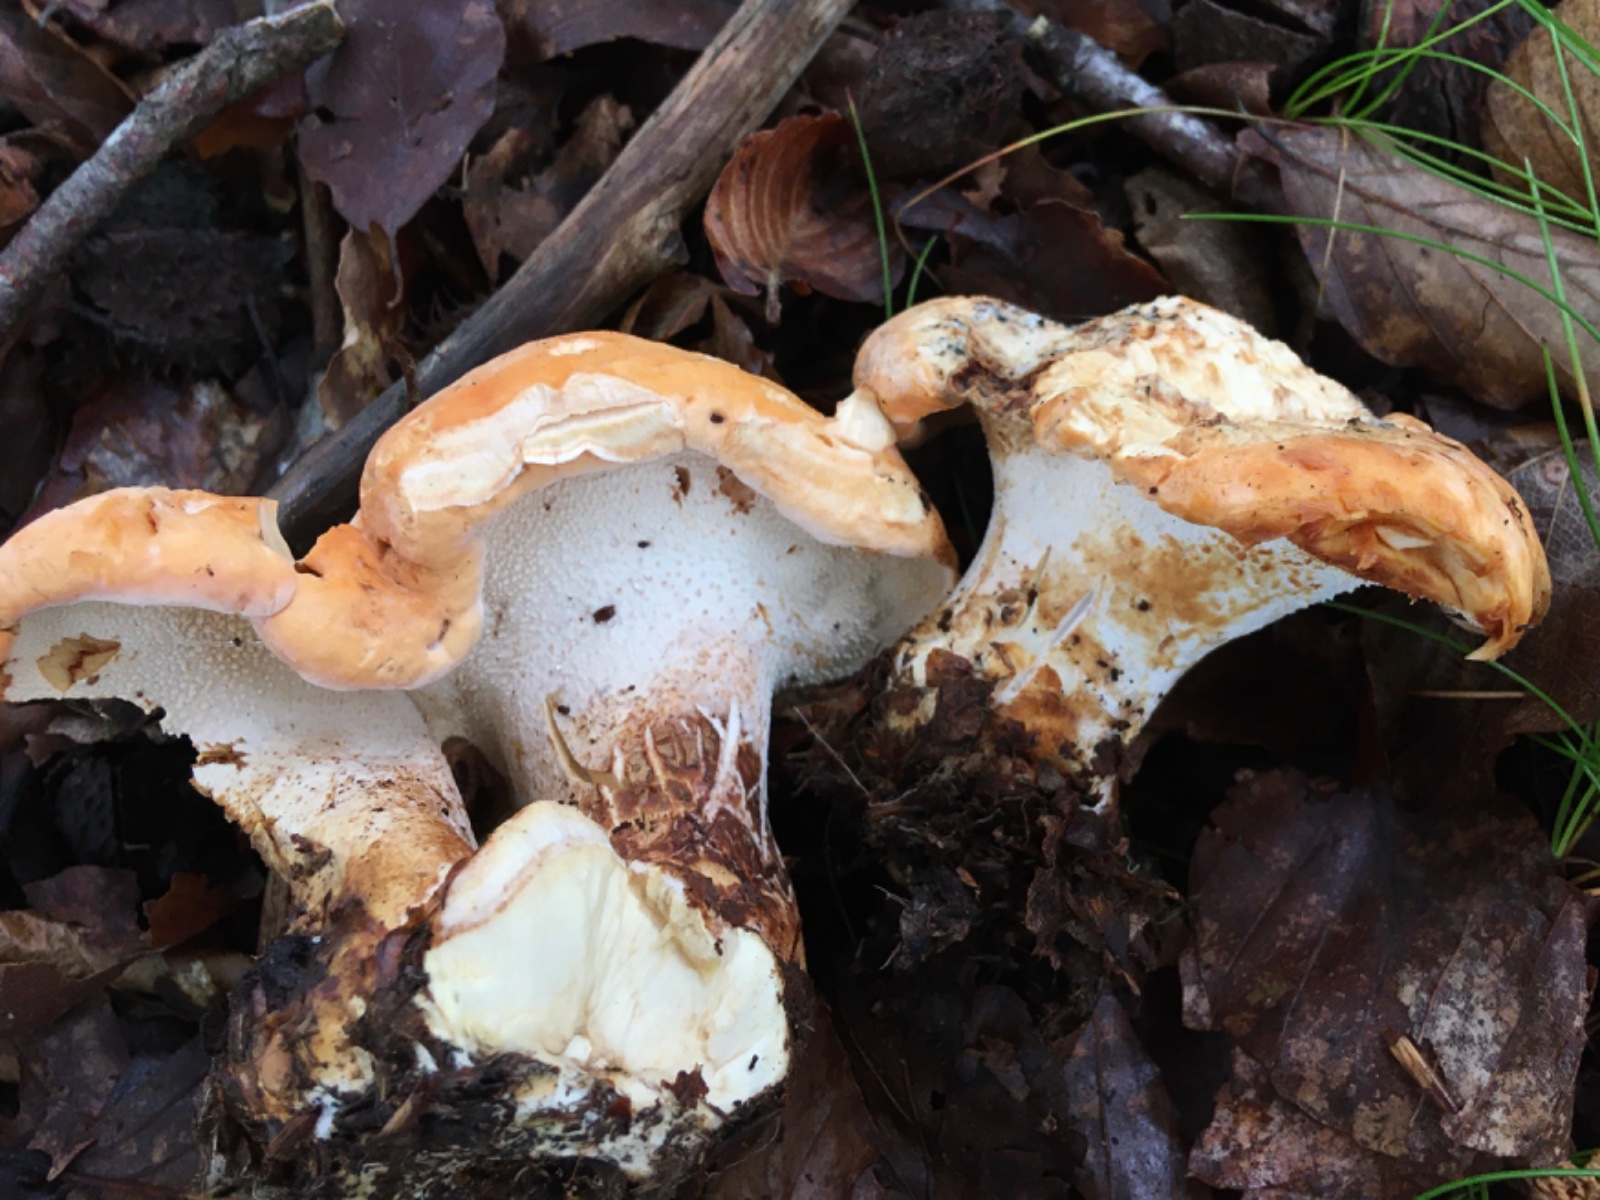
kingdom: Fungi
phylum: Basidiomycota
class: Agaricomycetes
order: Cantharellales
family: Hydnaceae
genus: Hydnum
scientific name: Hydnum rufescens
